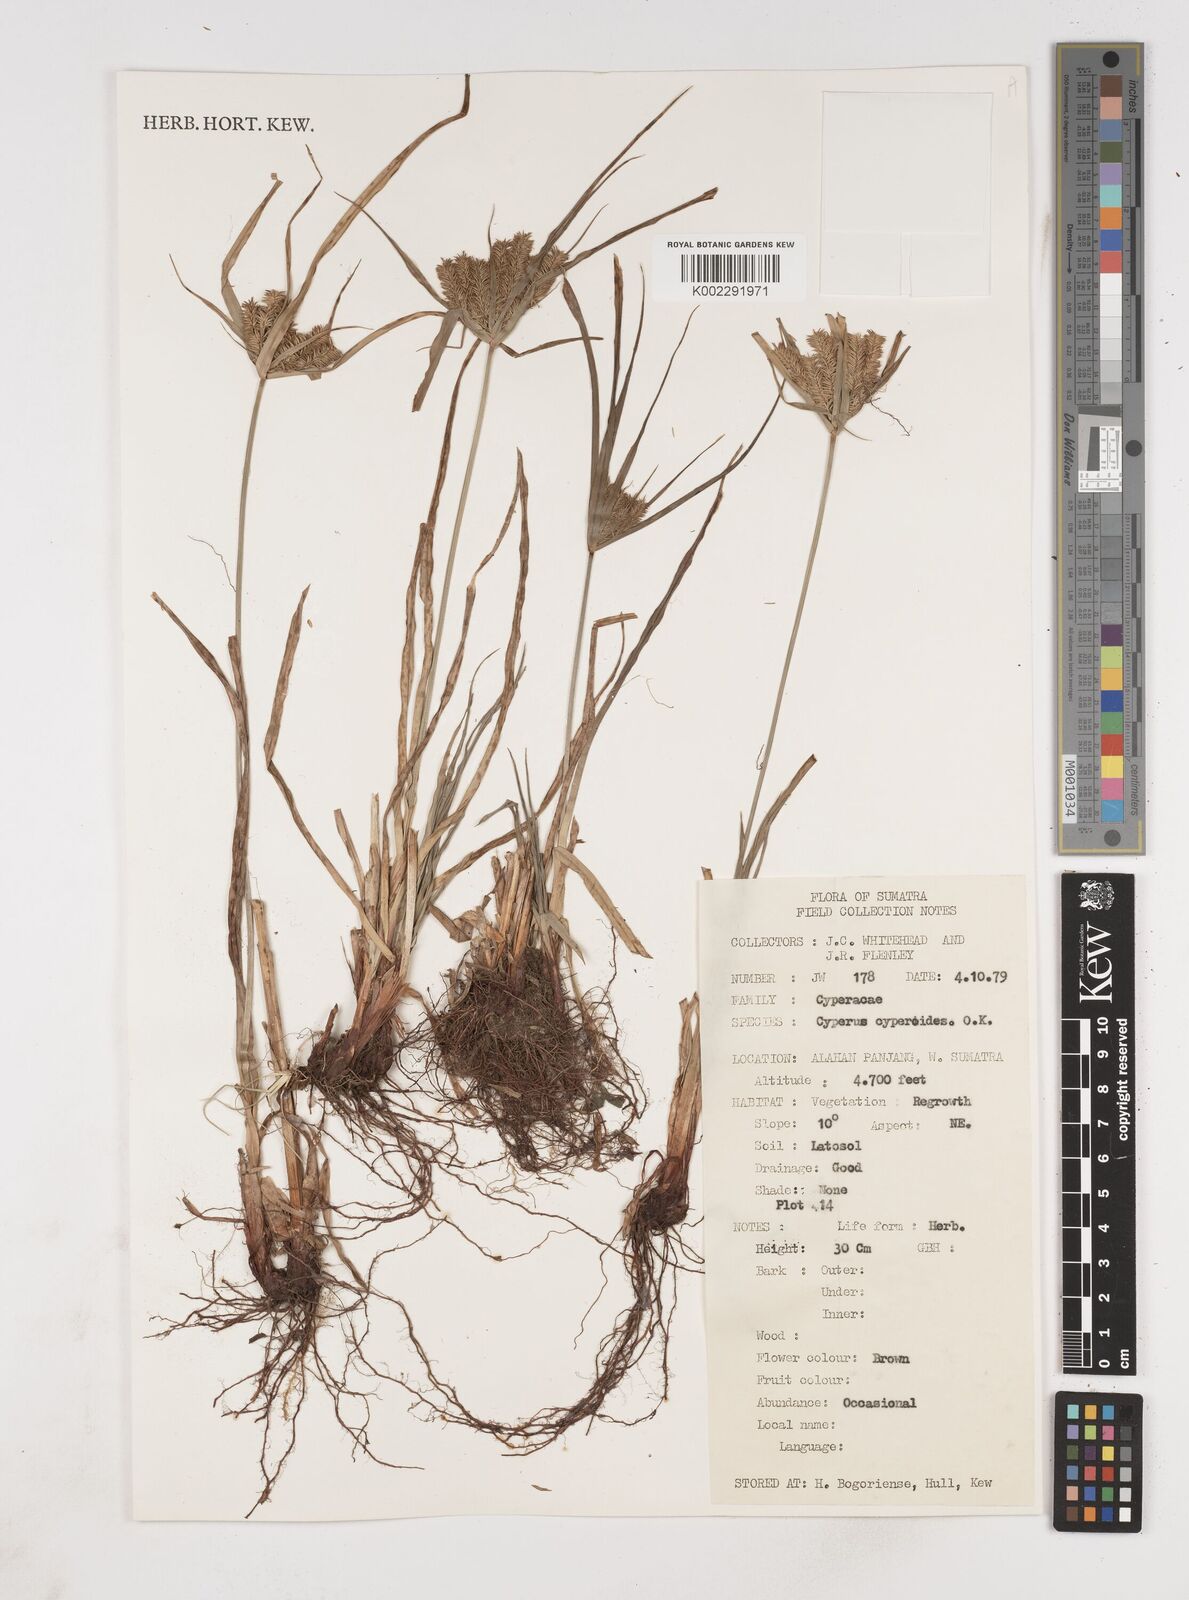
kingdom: Plantae
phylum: Tracheophyta
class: Liliopsida
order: Poales
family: Cyperaceae
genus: Cyperus
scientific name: Cyperus cyperoides
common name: Pacific island flat sedge
